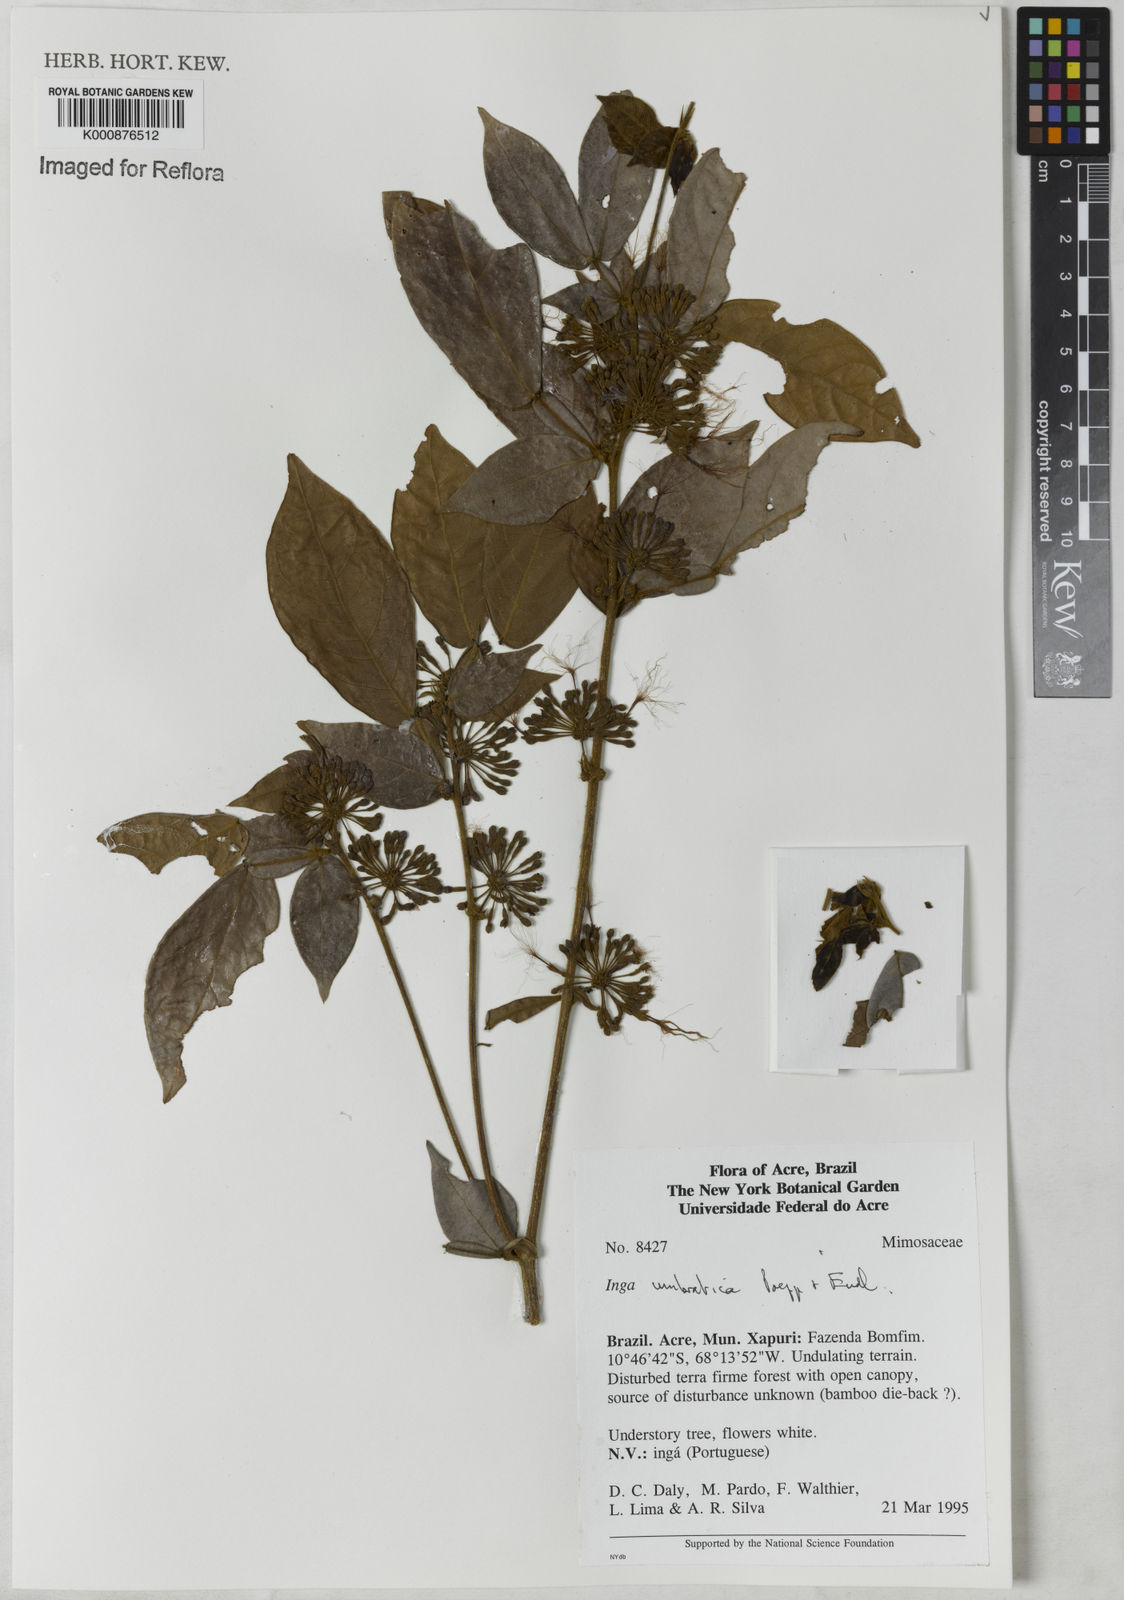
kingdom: Plantae
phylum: Tracheophyta
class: Magnoliopsida
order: Fabales
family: Fabaceae
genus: Inga
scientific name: Inga umbratica
